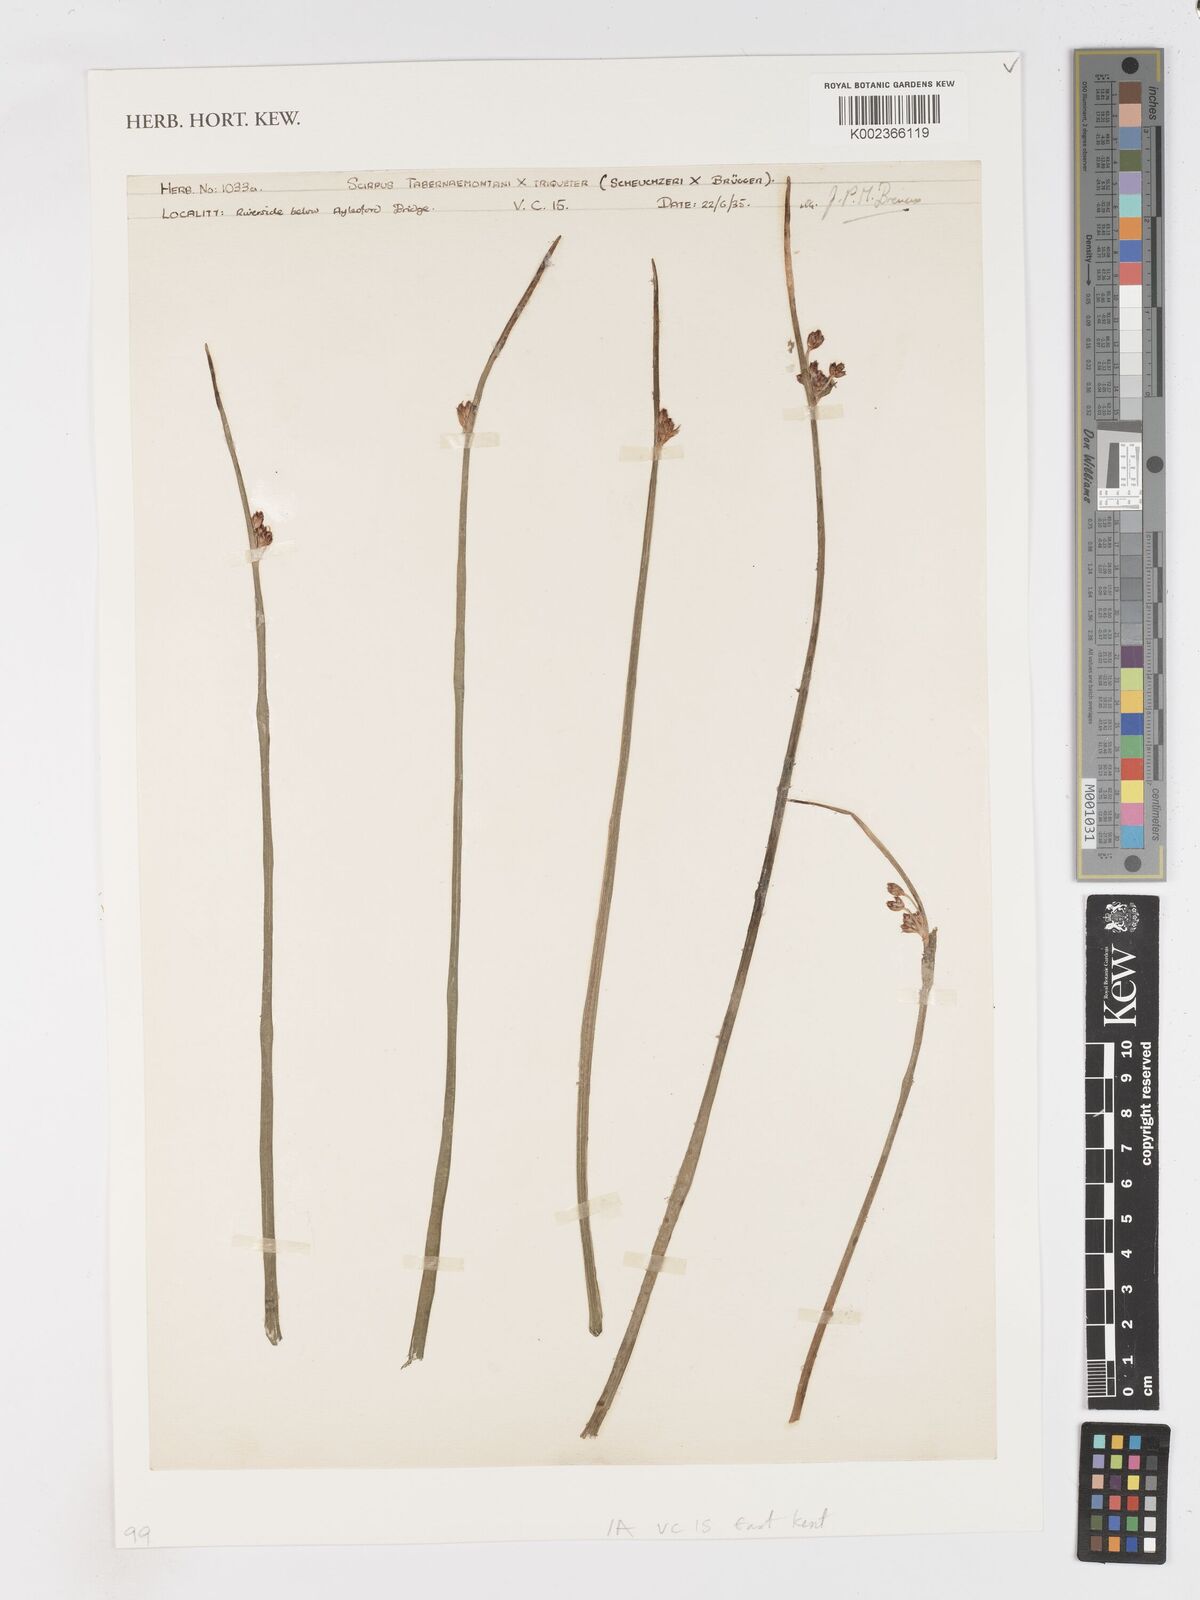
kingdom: Plantae
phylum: Tracheophyta
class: Liliopsida
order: Poales
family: Cyperaceae
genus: Schoenoplectus
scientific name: Schoenoplectus triqueter
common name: Triangular club-rush
